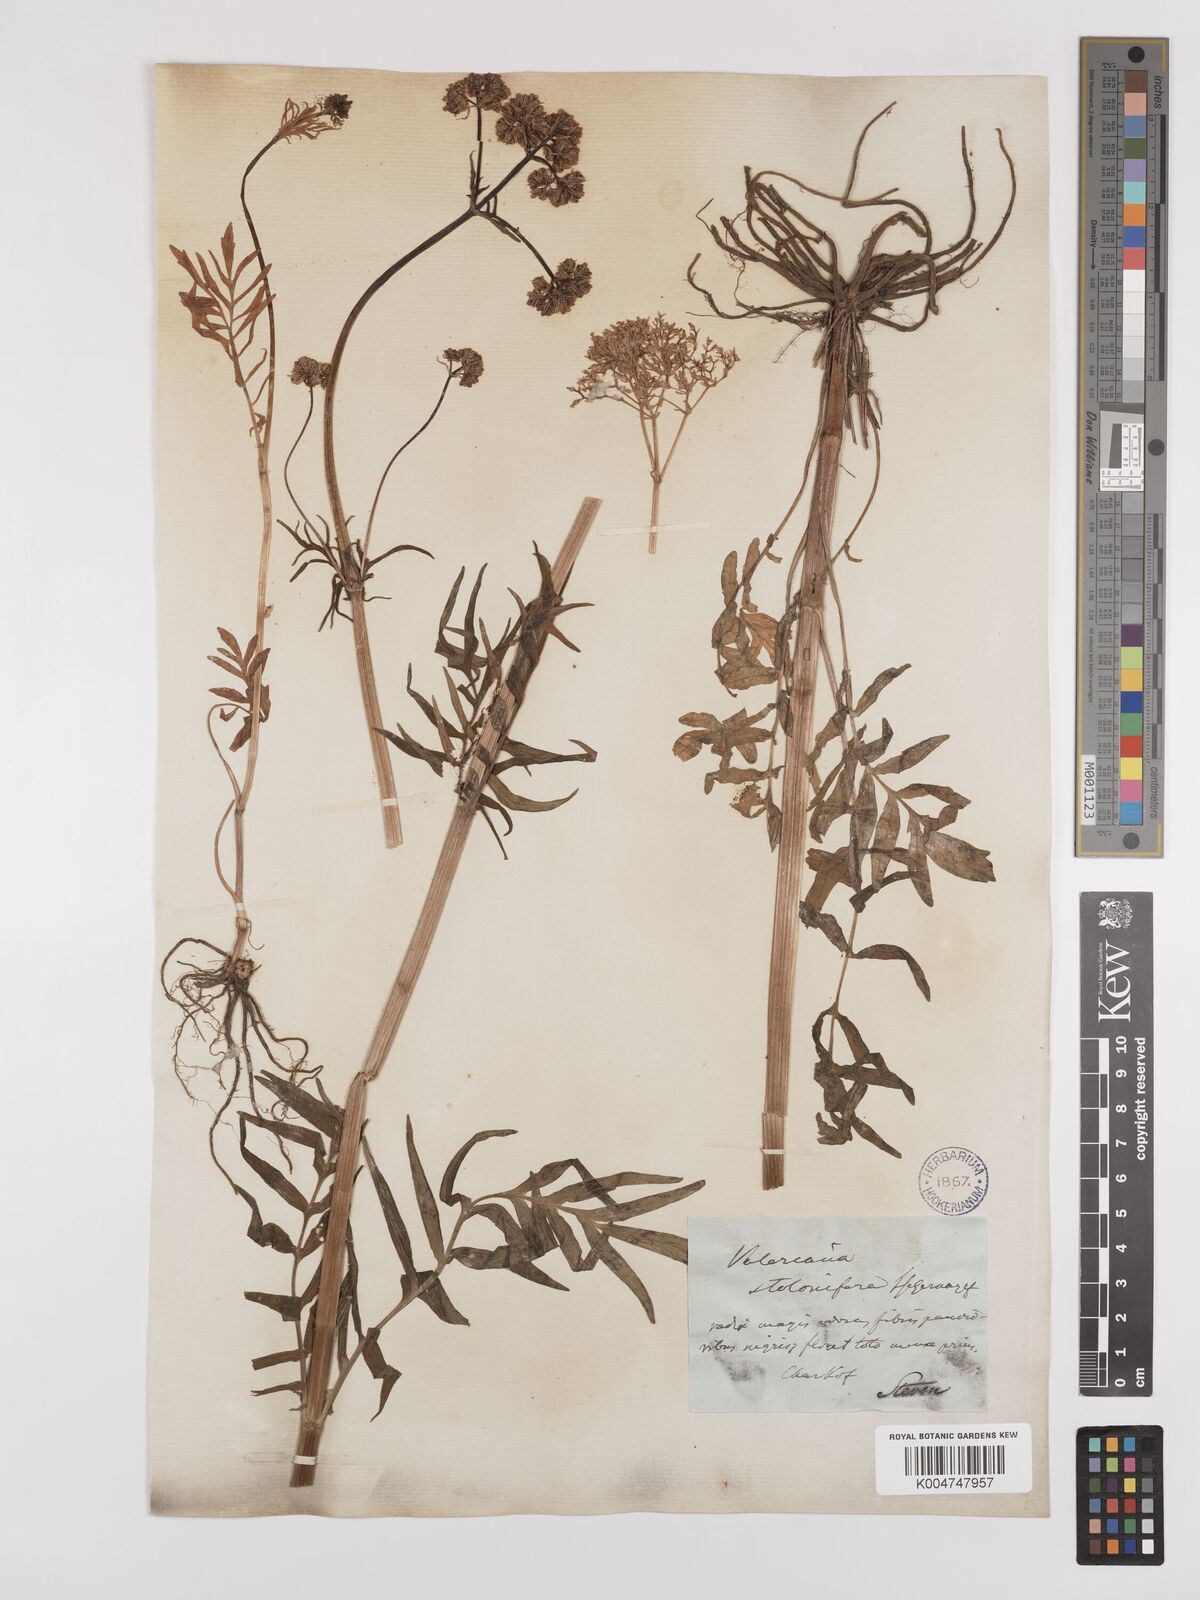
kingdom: Plantae
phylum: Tracheophyta
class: Magnoliopsida
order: Dipsacales
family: Caprifoliaceae
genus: Valeriana
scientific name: Valeriana officinalis
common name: Common valerian
